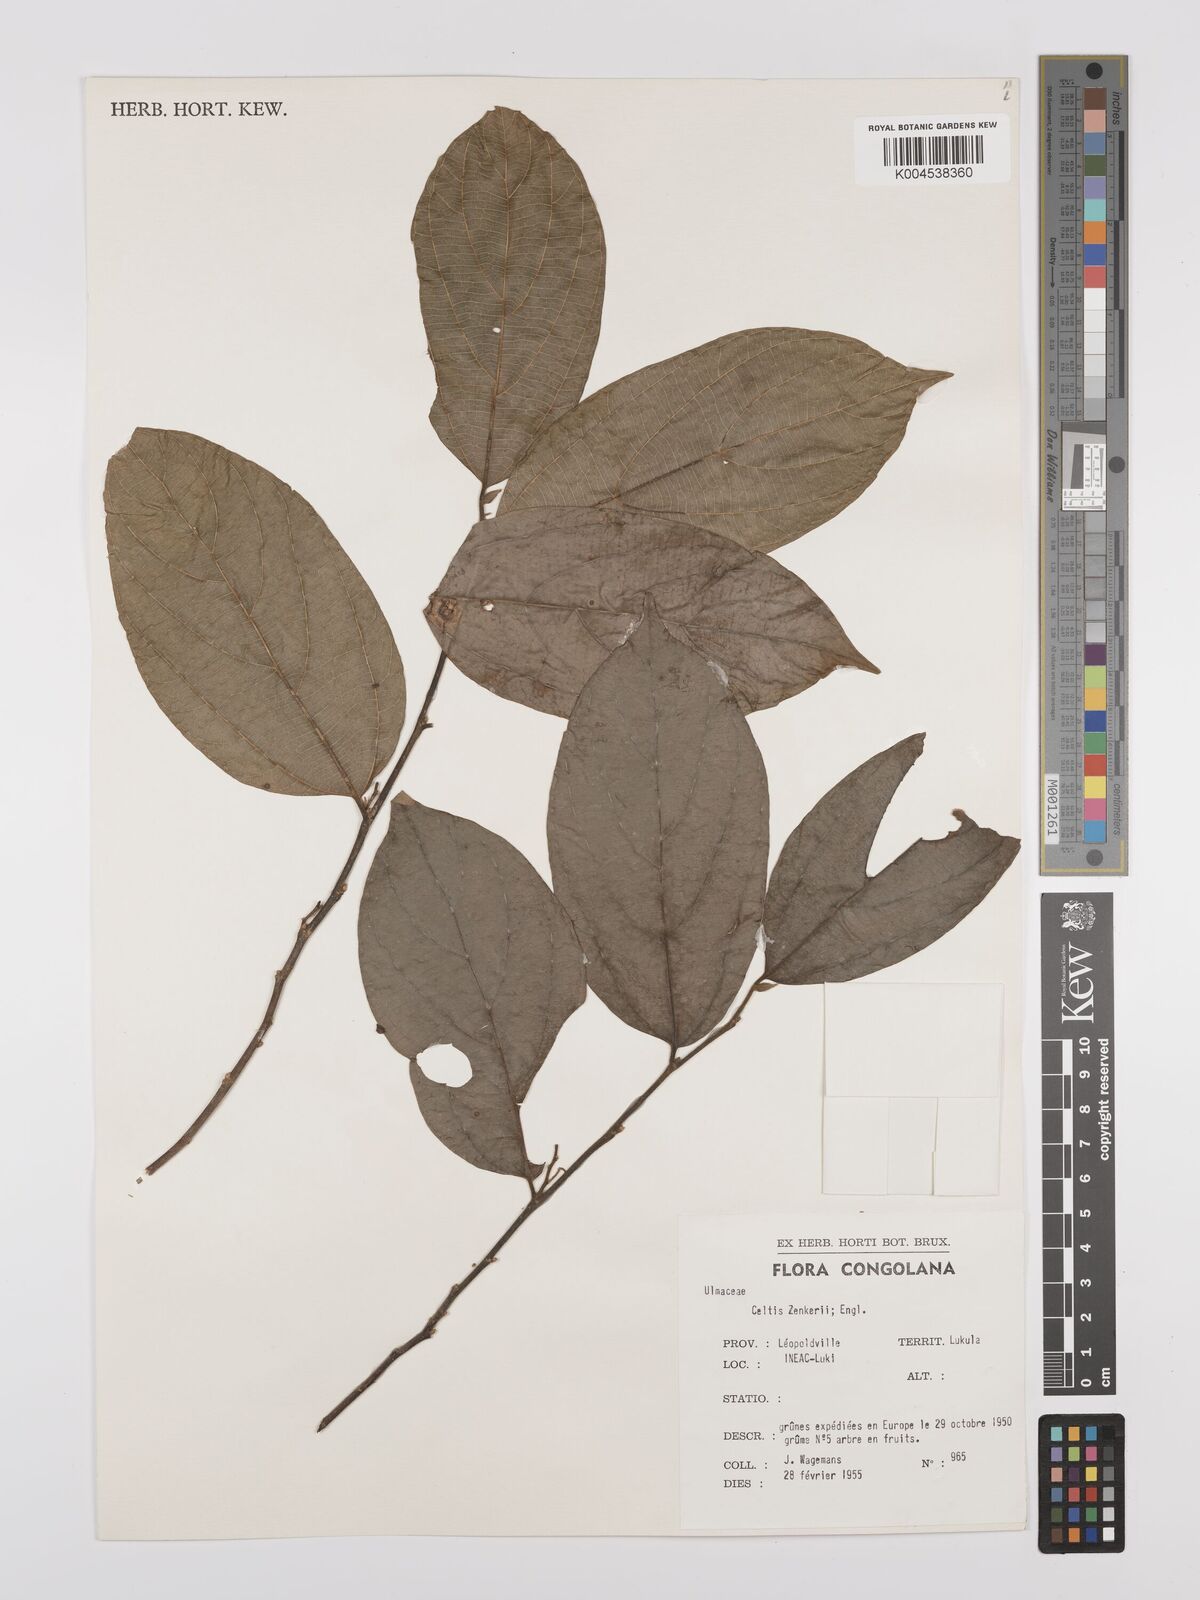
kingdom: Plantae
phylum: Tracheophyta
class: Magnoliopsida
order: Rosales
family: Cannabaceae
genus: Celtis
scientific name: Celtis zenkeri
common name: African celtis
